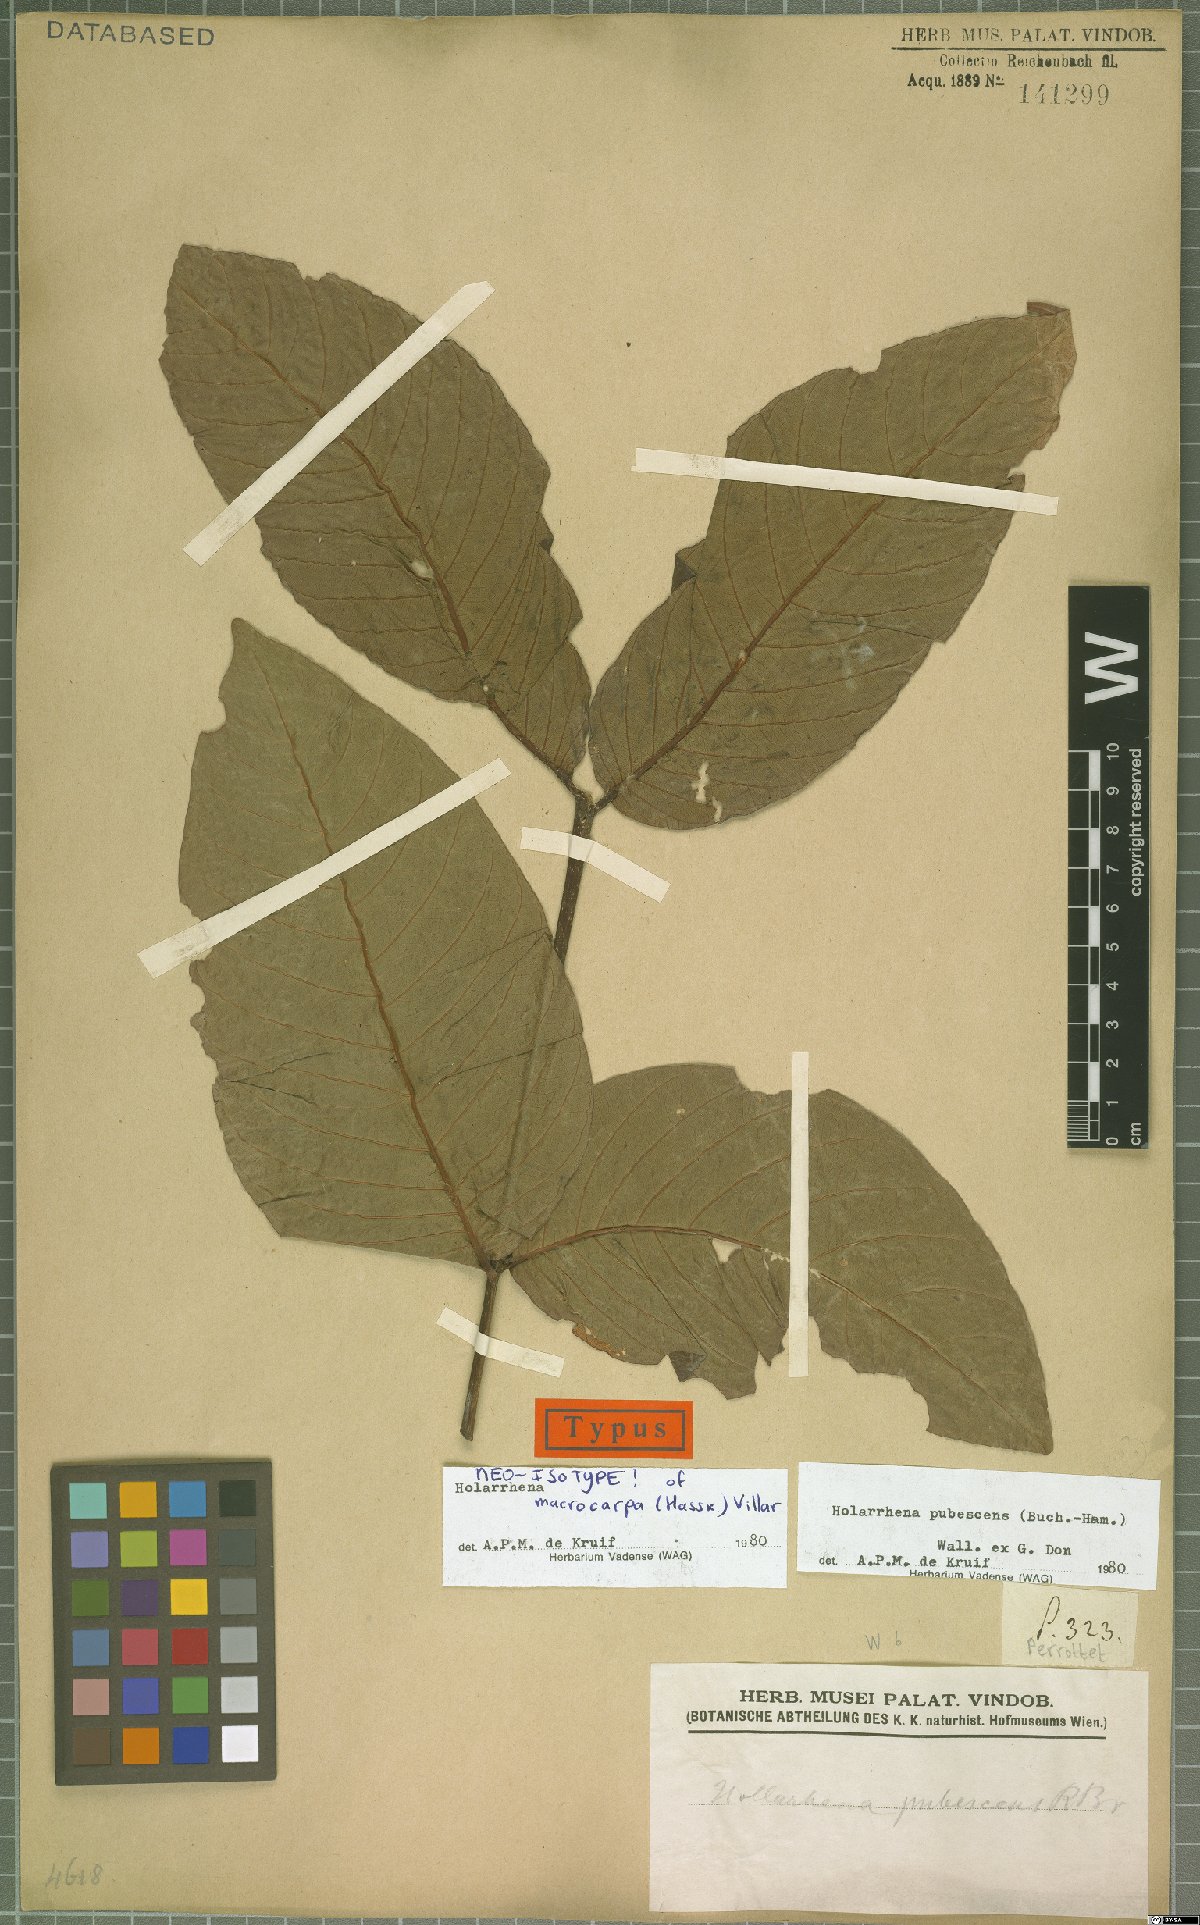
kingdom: Plantae
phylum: Tracheophyta
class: Magnoliopsida
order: Gentianales
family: Apocynaceae
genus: Holarrhena
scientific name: Holarrhena pubescens
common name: Bitter oleander
